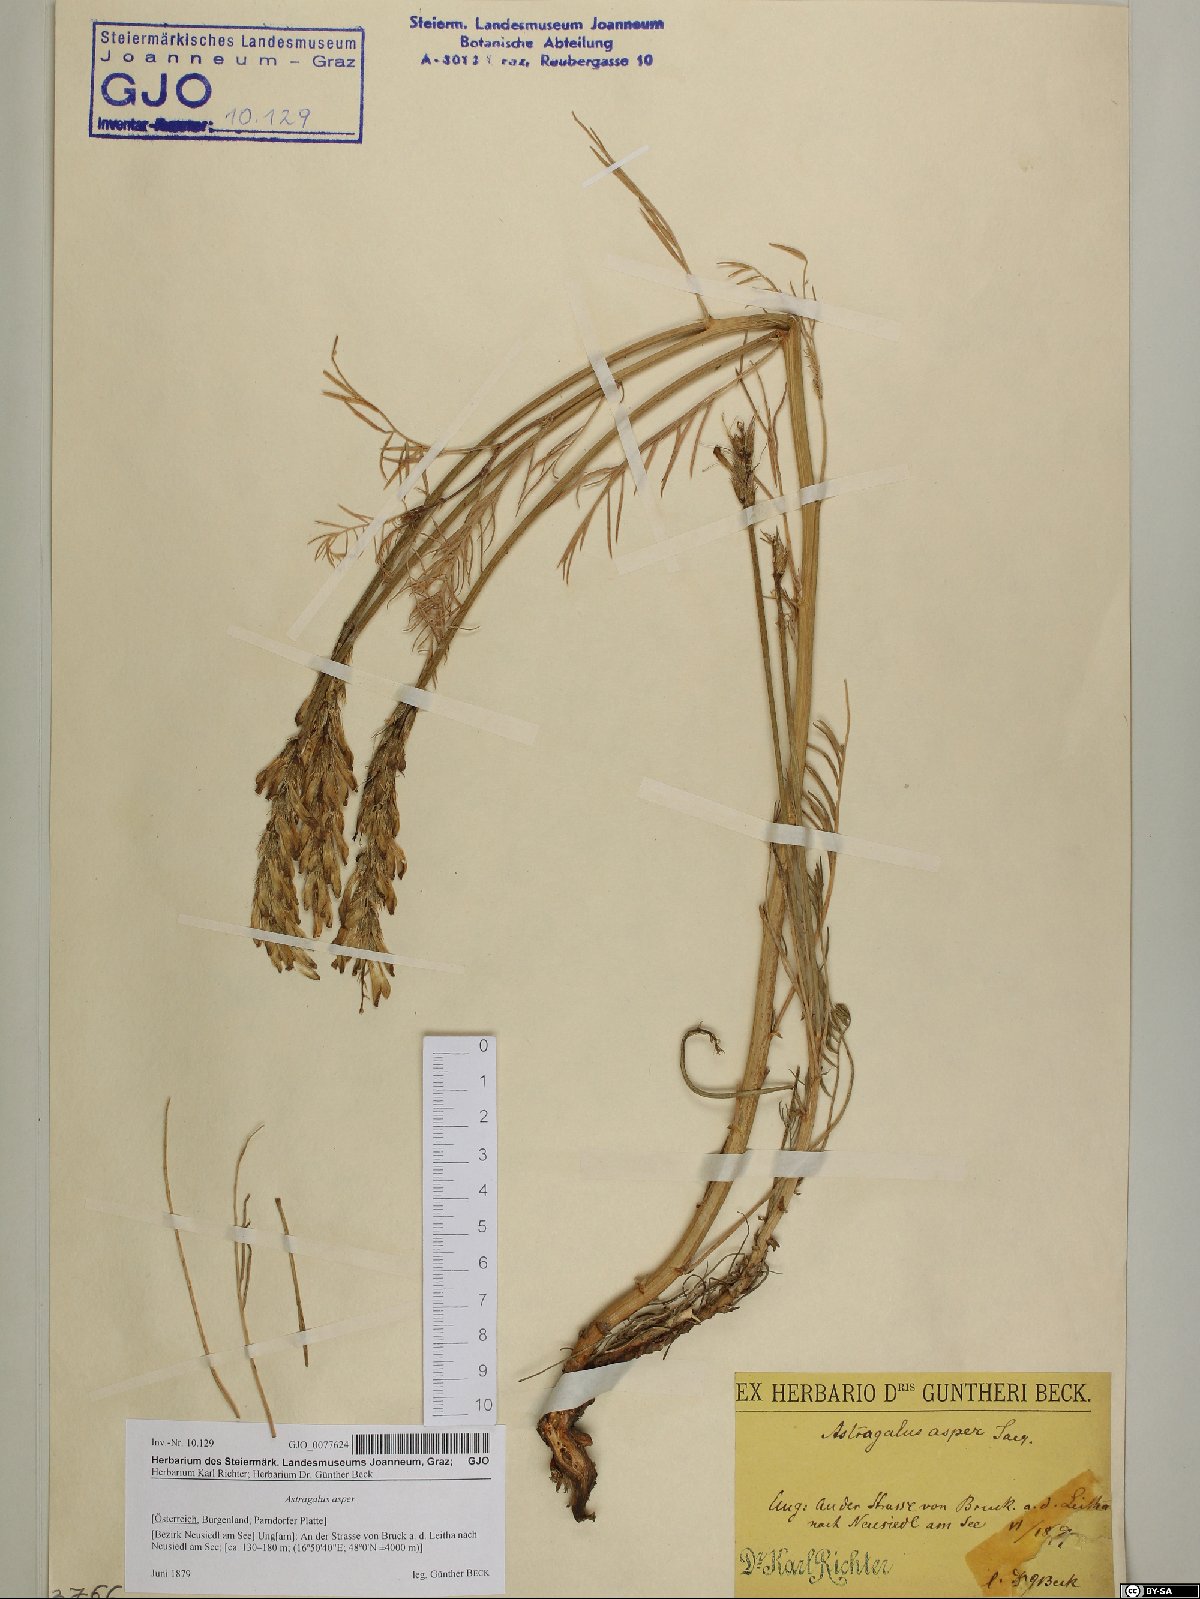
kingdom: Plantae
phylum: Tracheophyta
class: Magnoliopsida
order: Fabales
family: Fabaceae
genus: Astragalus
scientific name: Astragalus asper
